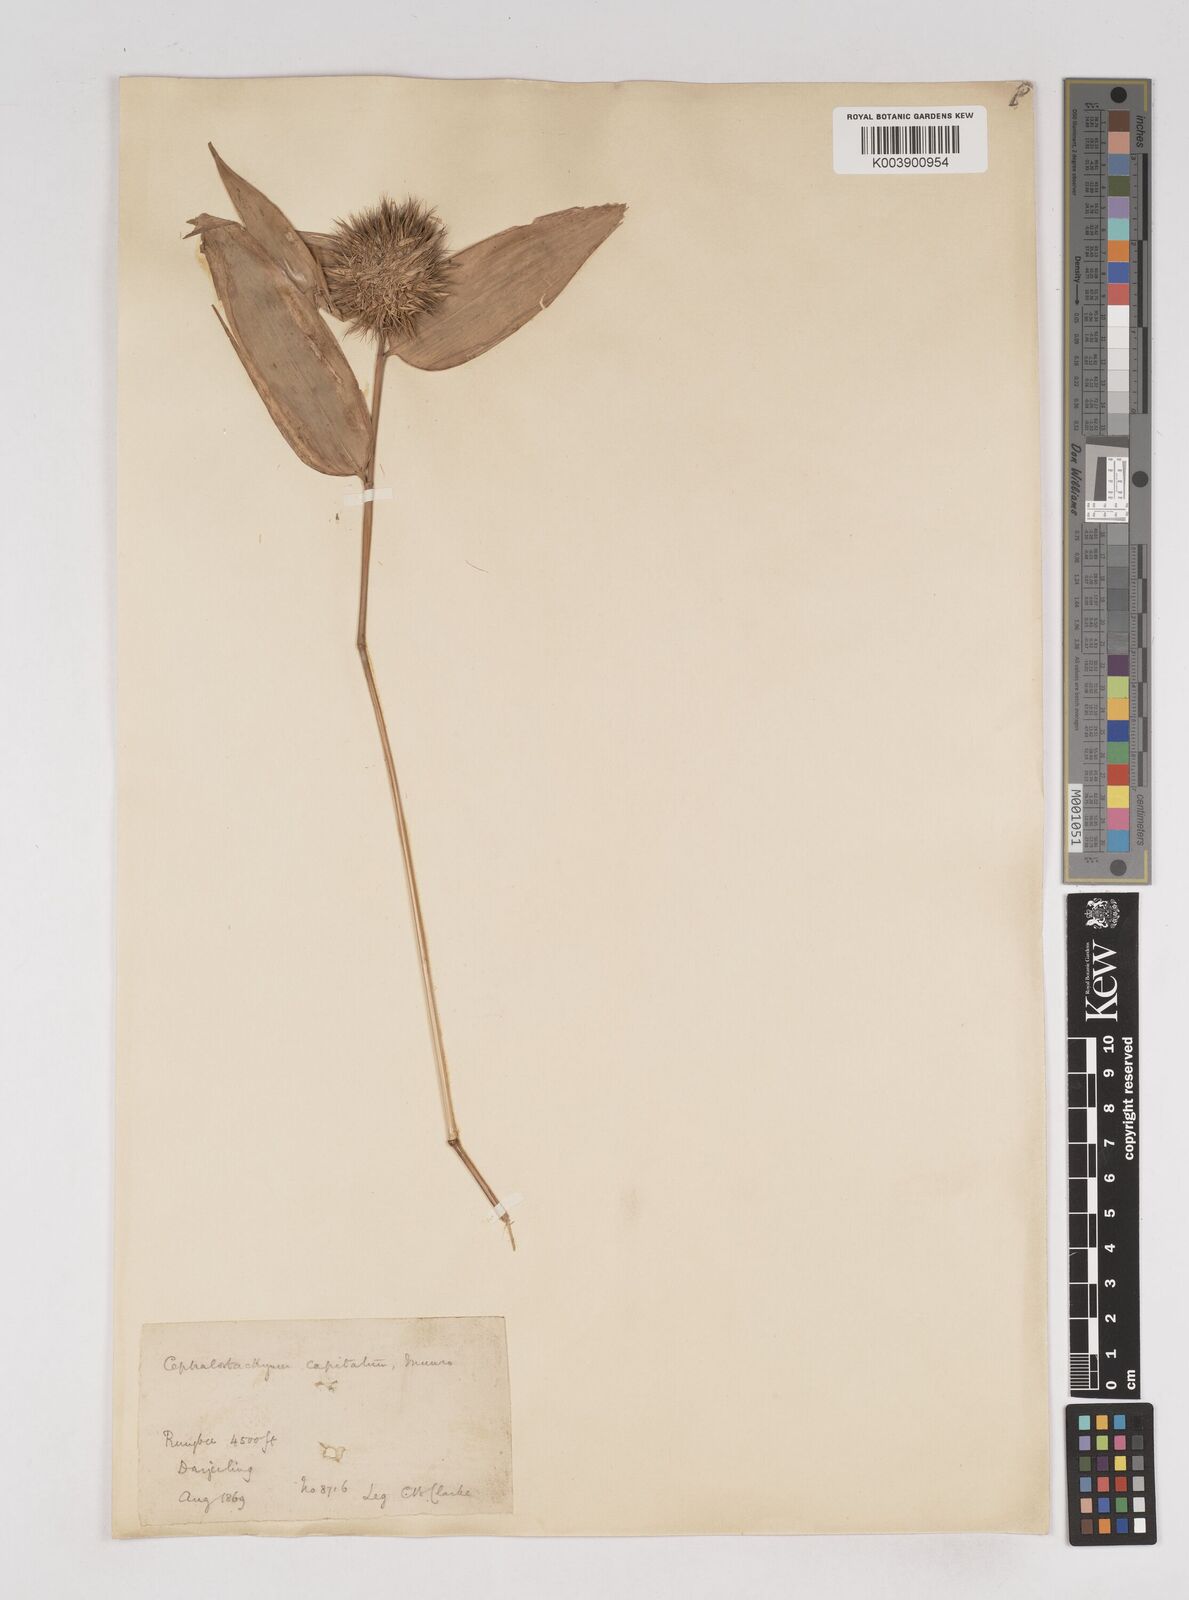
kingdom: Plantae
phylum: Tracheophyta
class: Liliopsida
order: Poales
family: Poaceae
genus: Cephalostachyum
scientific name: Cephalostachyum capitatum
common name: Hollow bamboo
